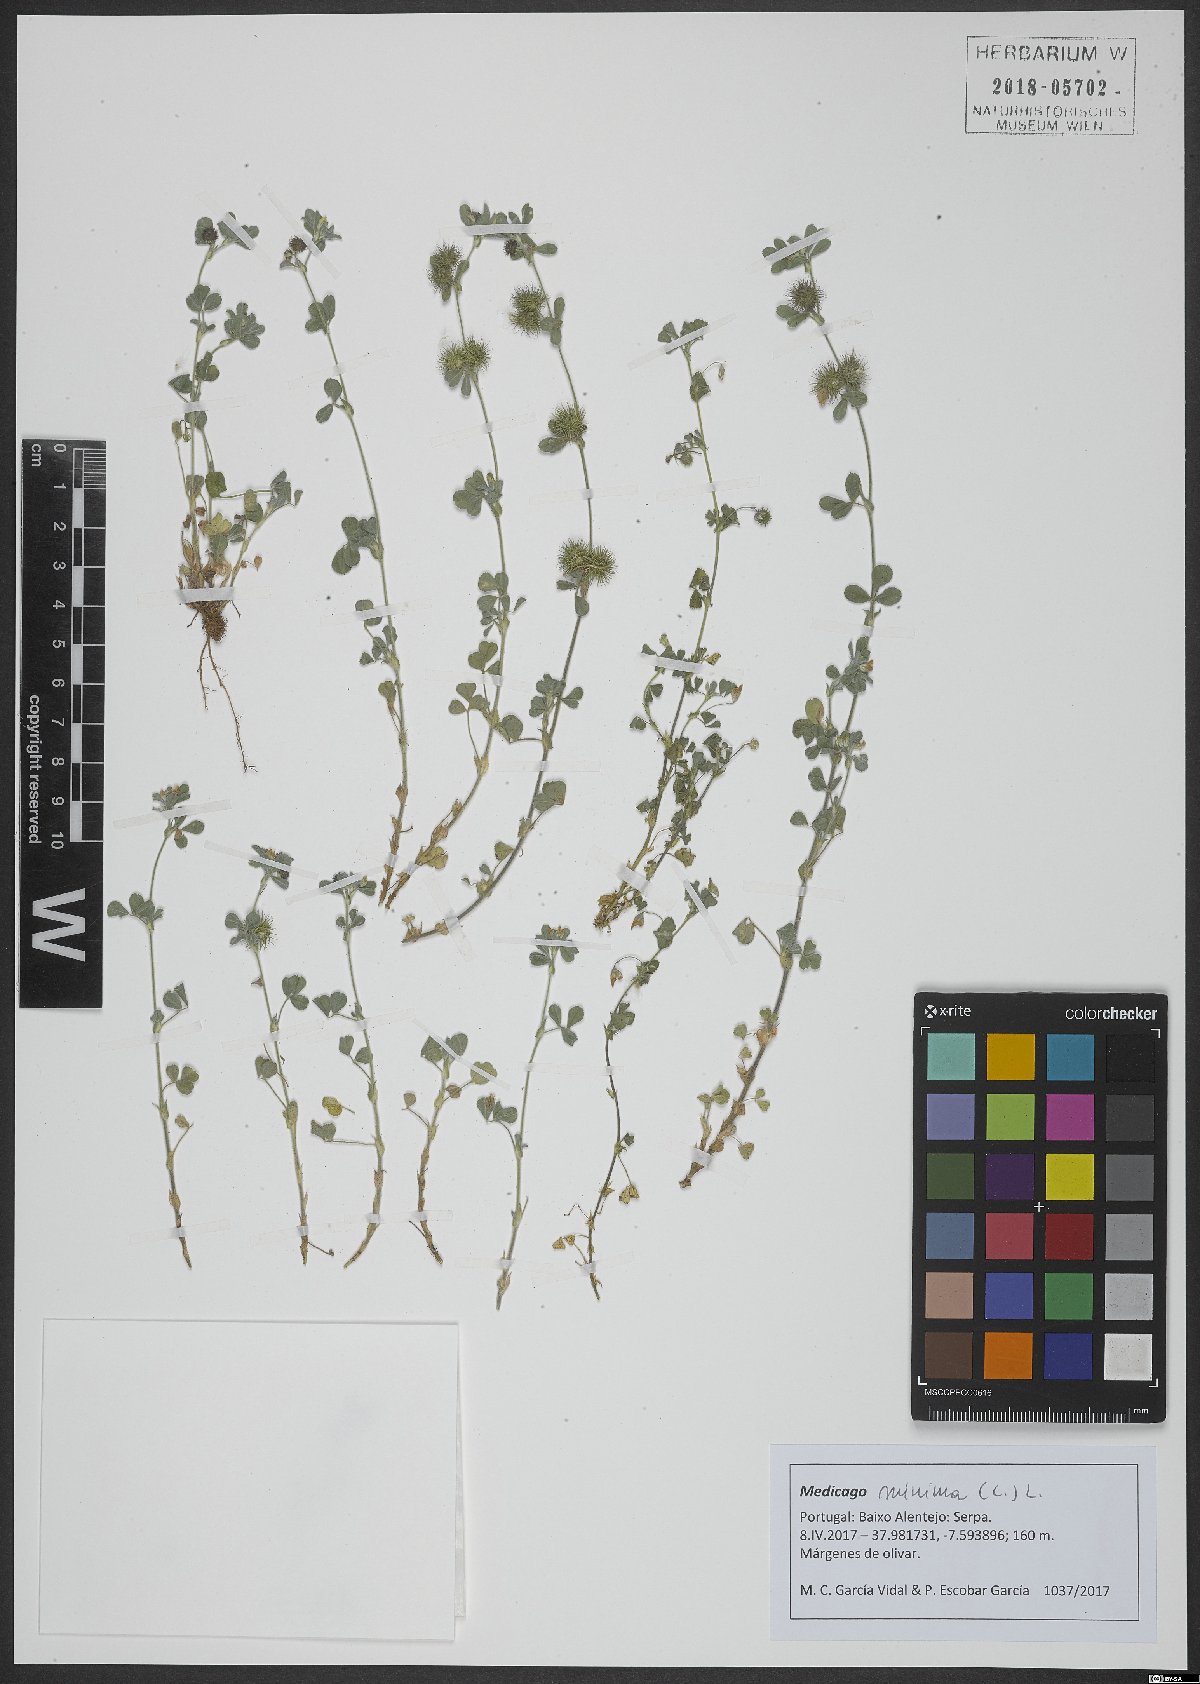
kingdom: Plantae
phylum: Tracheophyta
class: Magnoliopsida
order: Fabales
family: Fabaceae
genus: Medicago
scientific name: Medicago minima
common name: Little bur-clover
